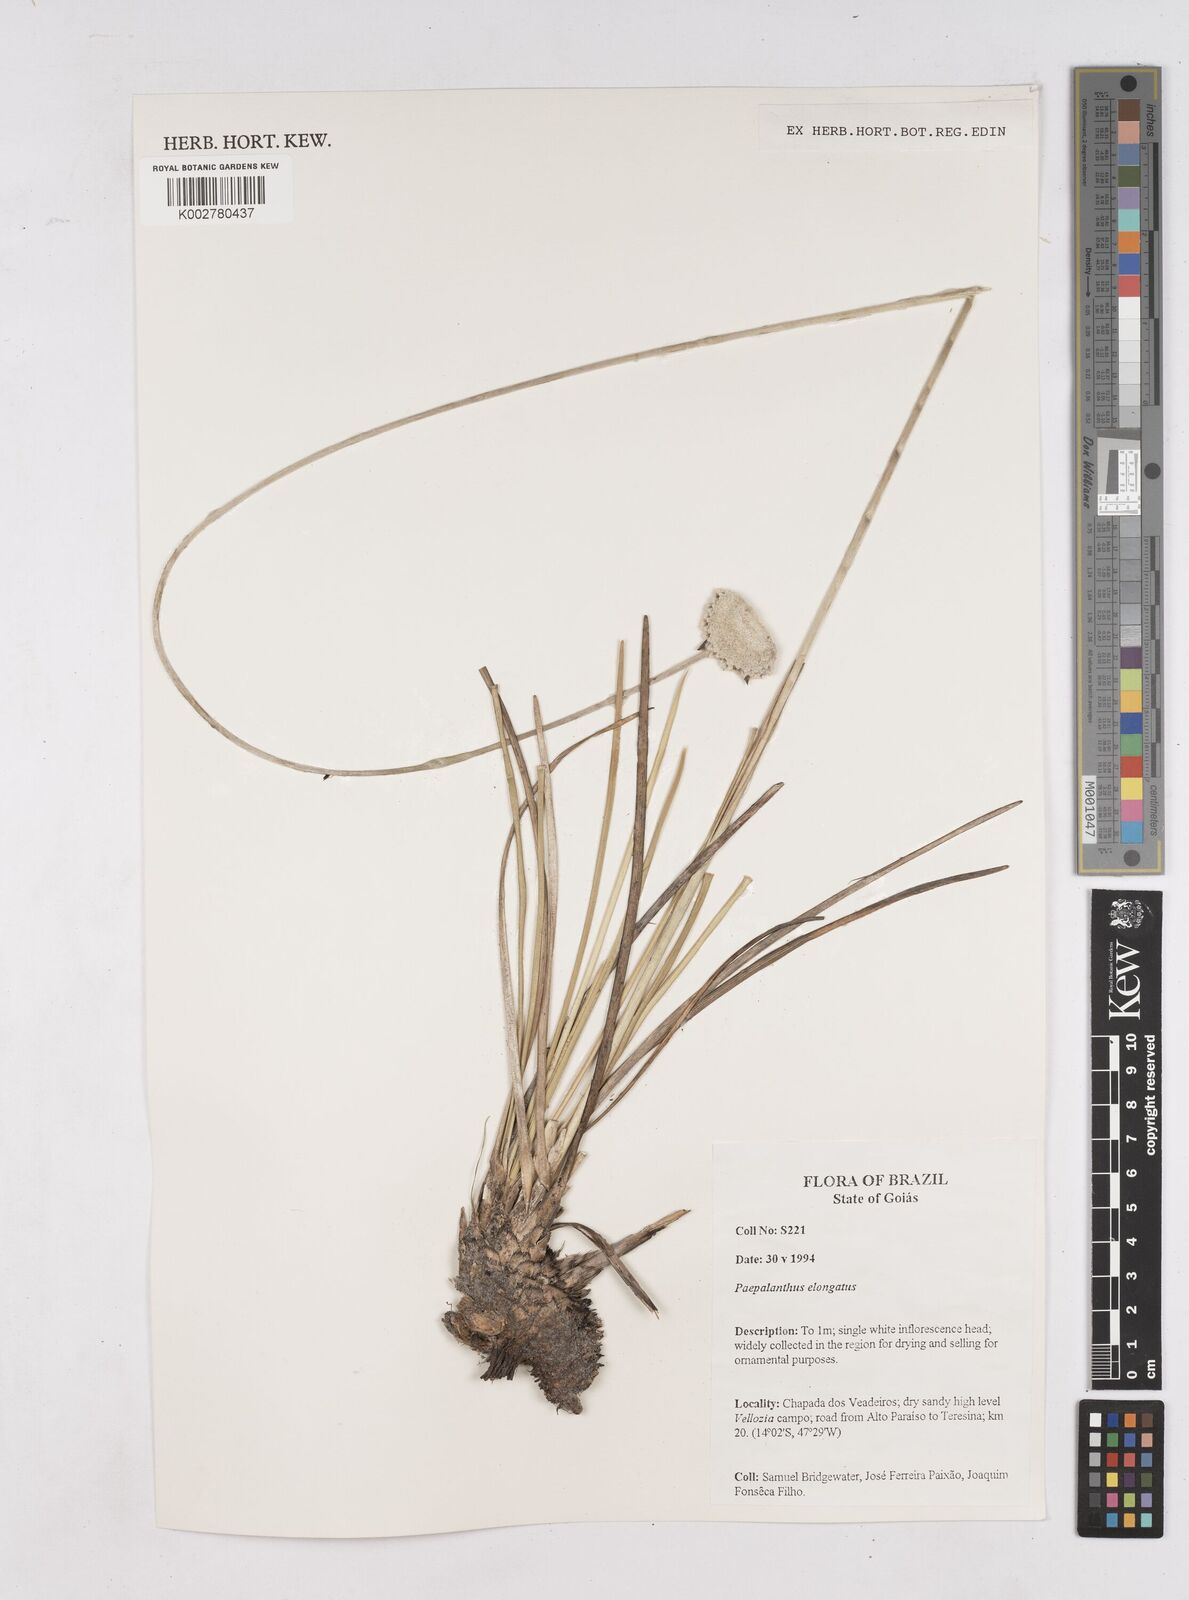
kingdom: Plantae
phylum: Tracheophyta
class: Liliopsida
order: Poales
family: Eriocaulaceae
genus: Paepalanthus
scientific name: Paepalanthus elongatus
